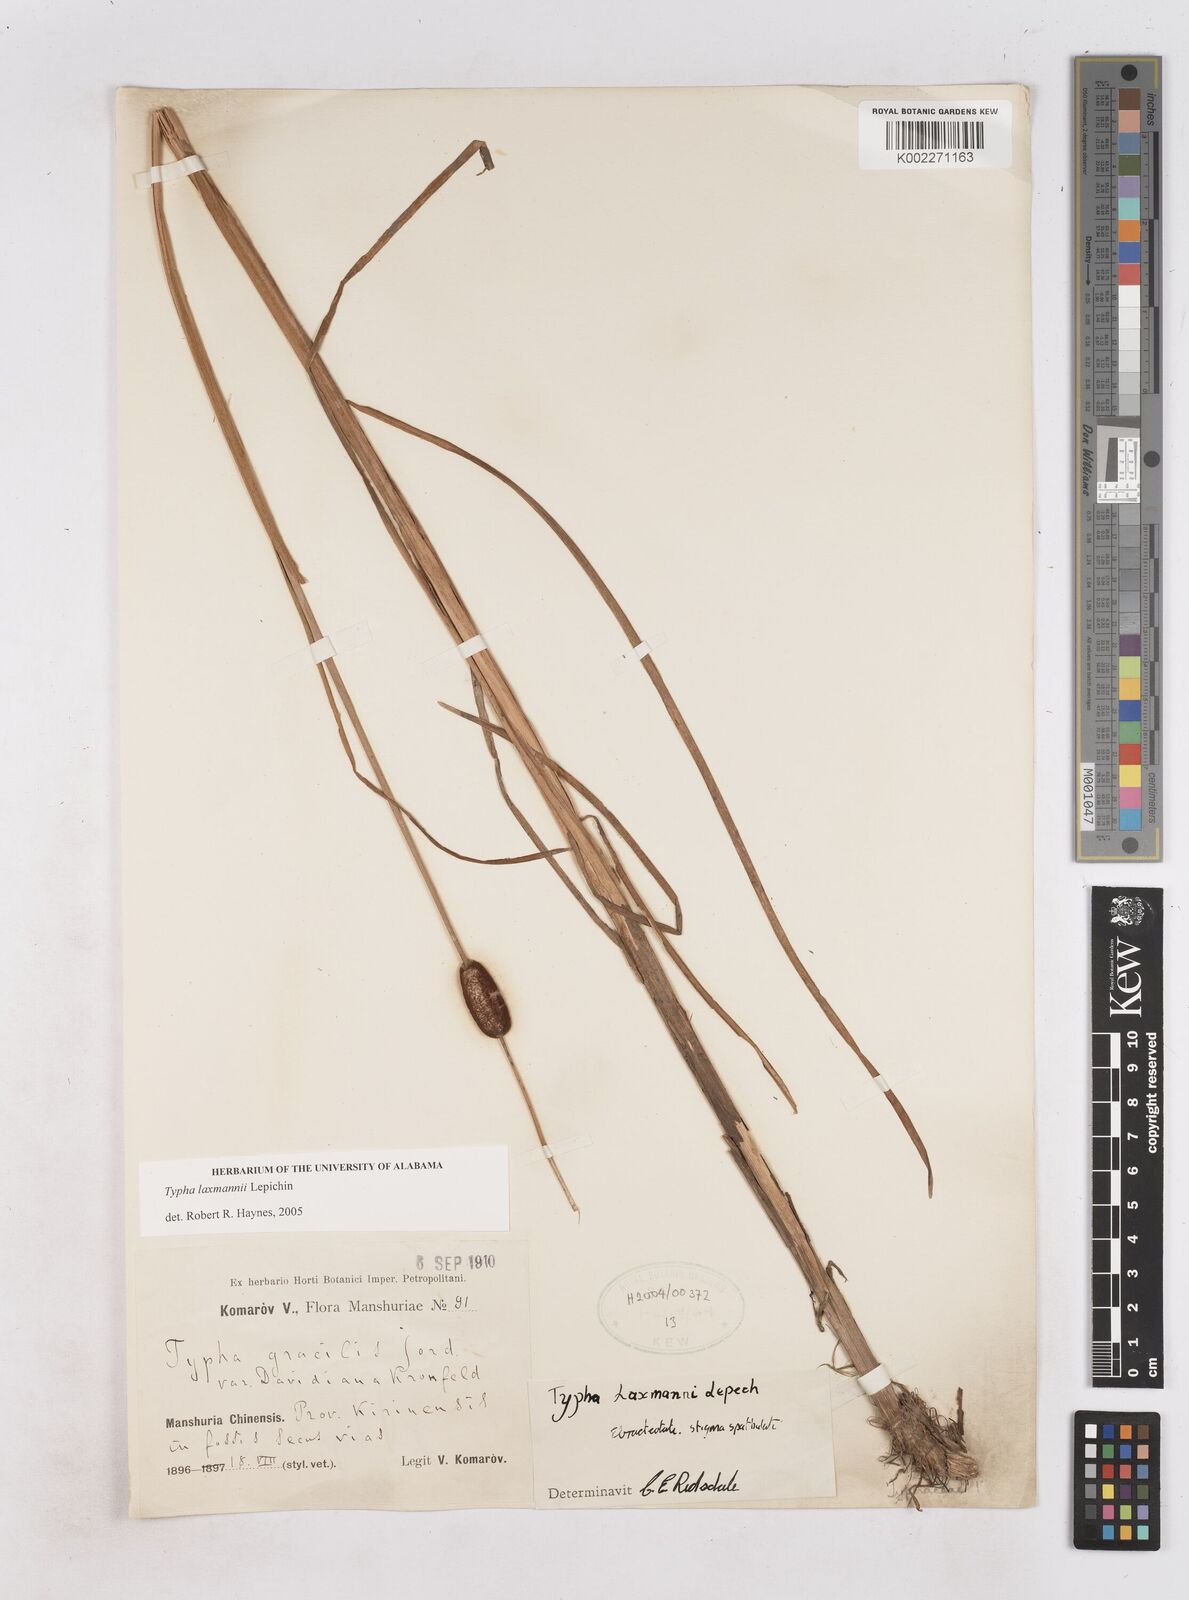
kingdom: Plantae
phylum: Tracheophyta
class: Liliopsida
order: Poales
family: Typhaceae
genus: Typha
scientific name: Typha laxmannii
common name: Laxman’s bulrush
